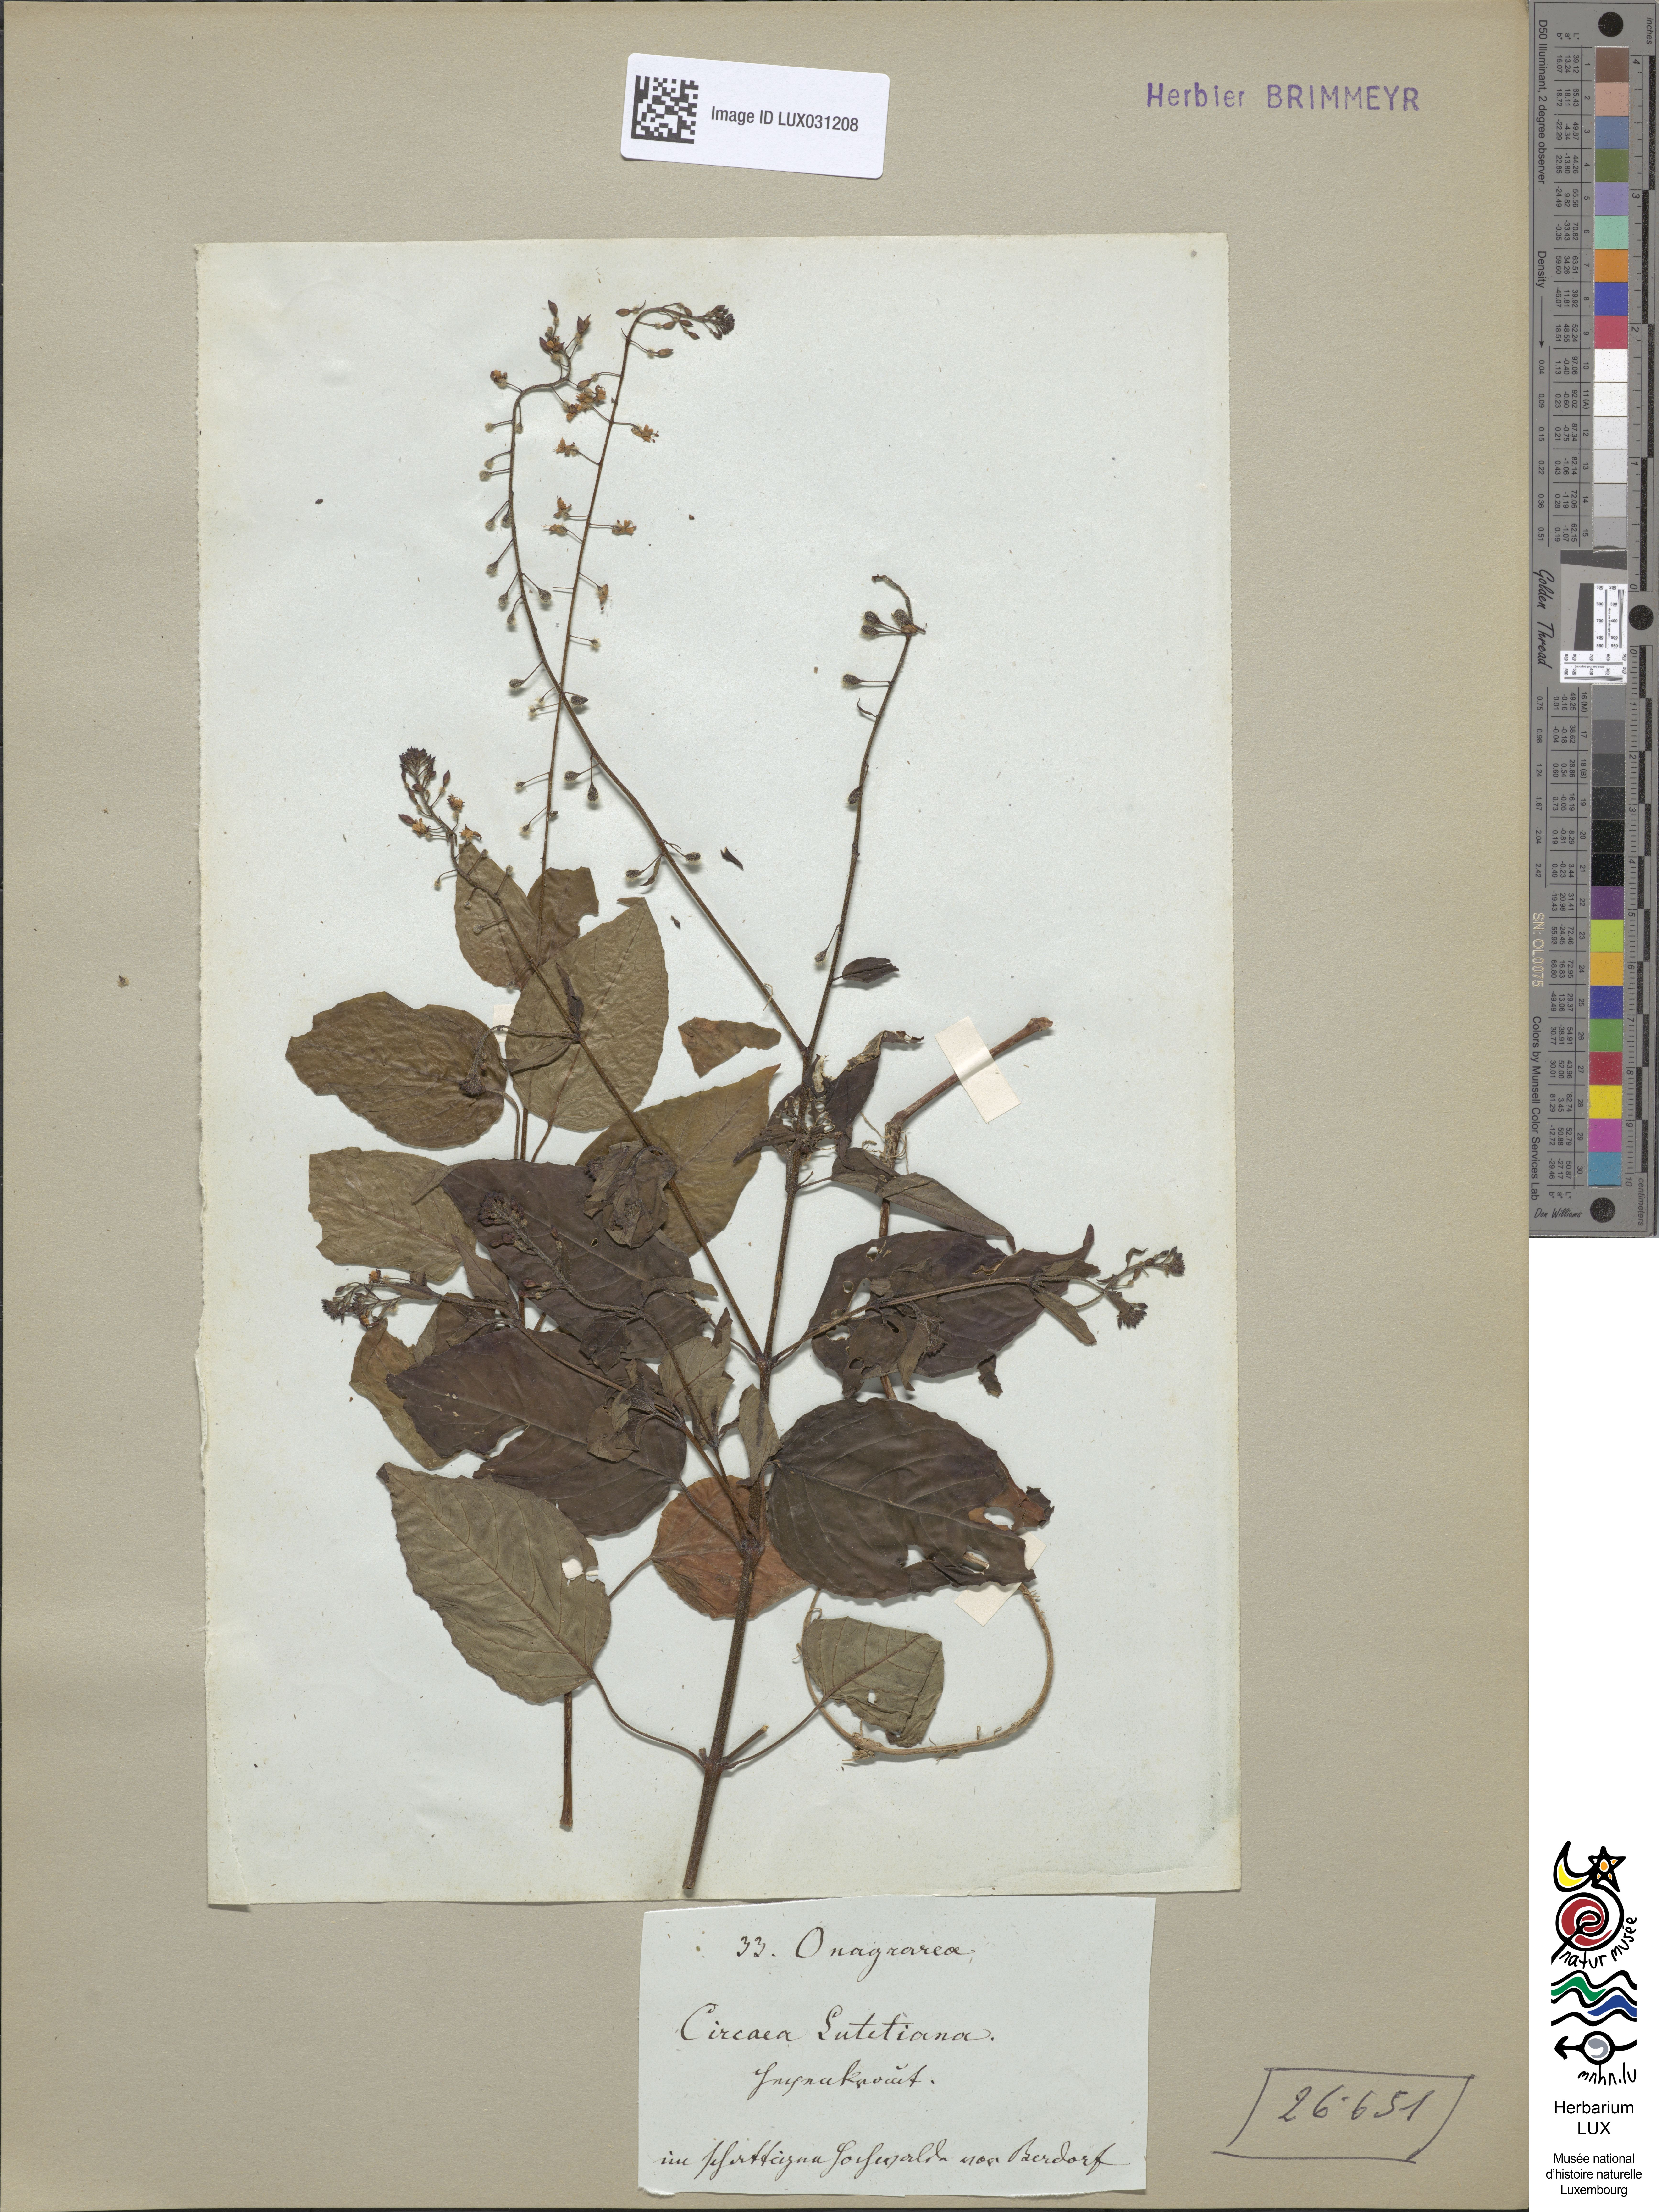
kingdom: Plantae
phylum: Tracheophyta
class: Magnoliopsida
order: Myrtales
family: Onagraceae
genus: Circaea
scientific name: Circaea lutetiana
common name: Enchanter's-nightshade
